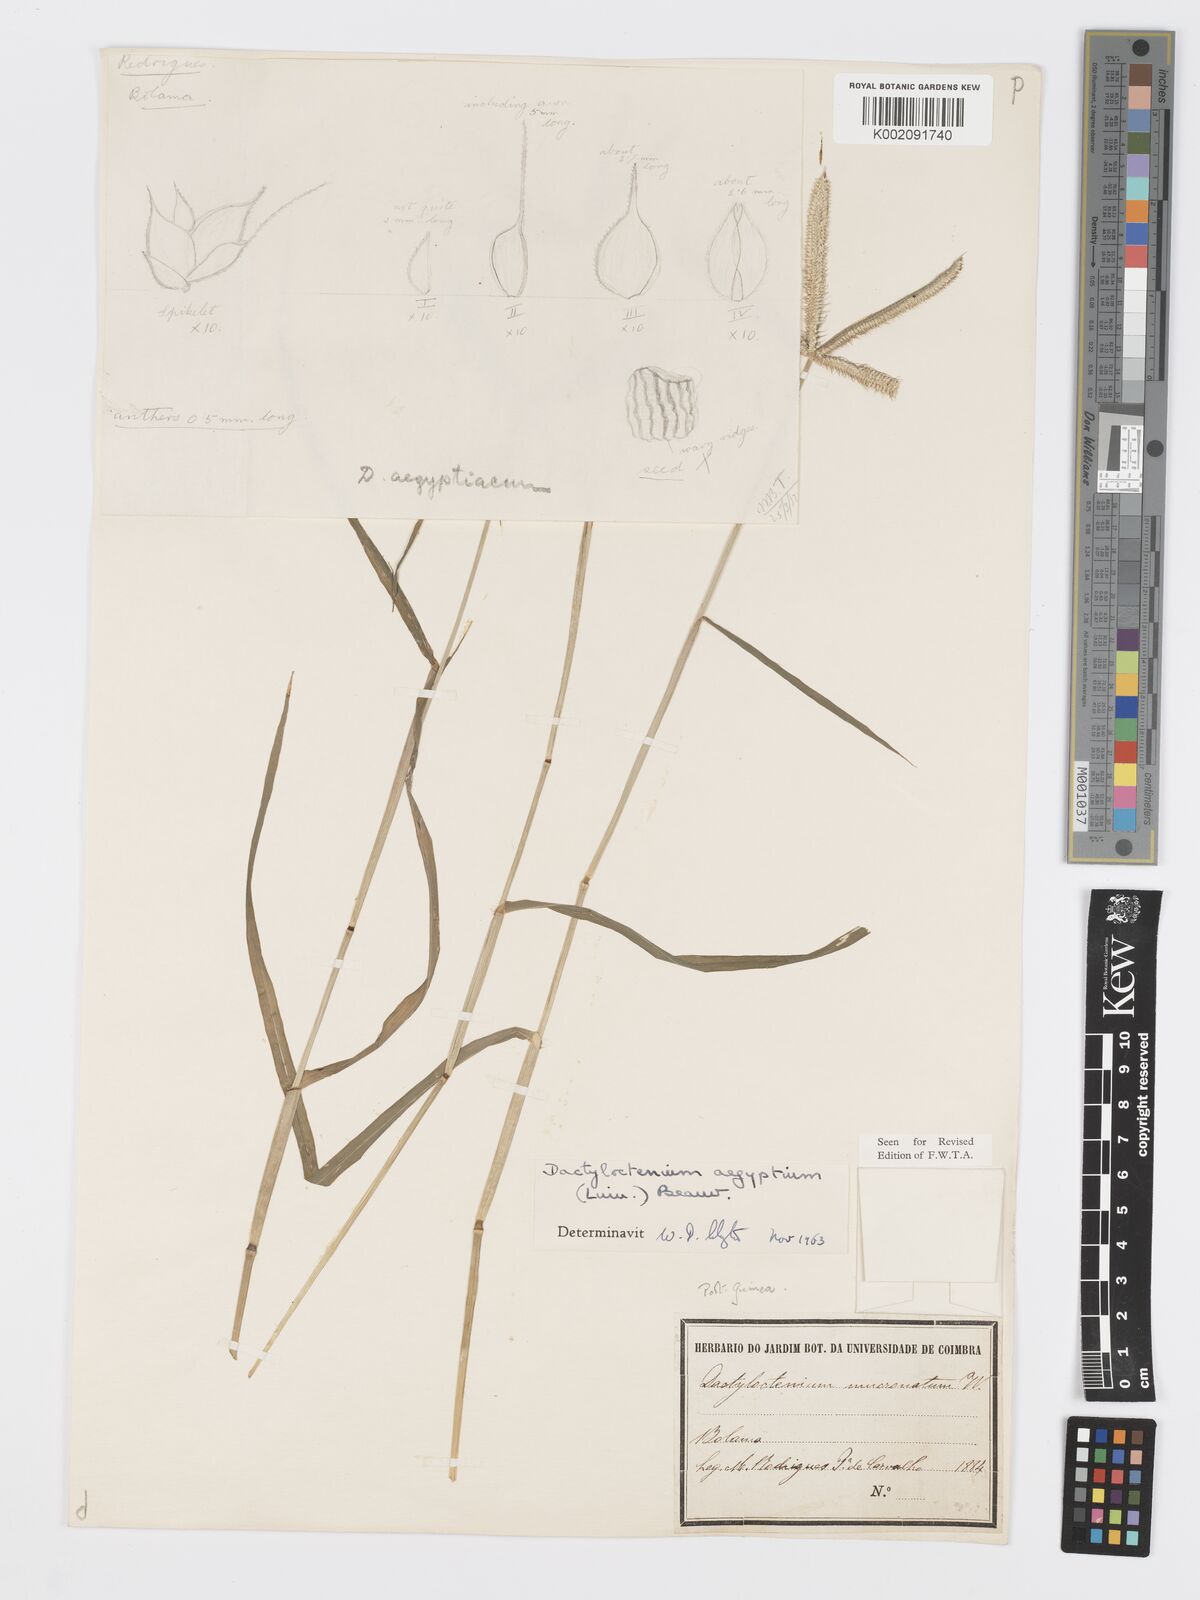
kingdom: Plantae
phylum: Tracheophyta
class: Liliopsida
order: Poales
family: Poaceae
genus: Dactyloctenium
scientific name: Dactyloctenium aegyptium
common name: Egyptian grass
